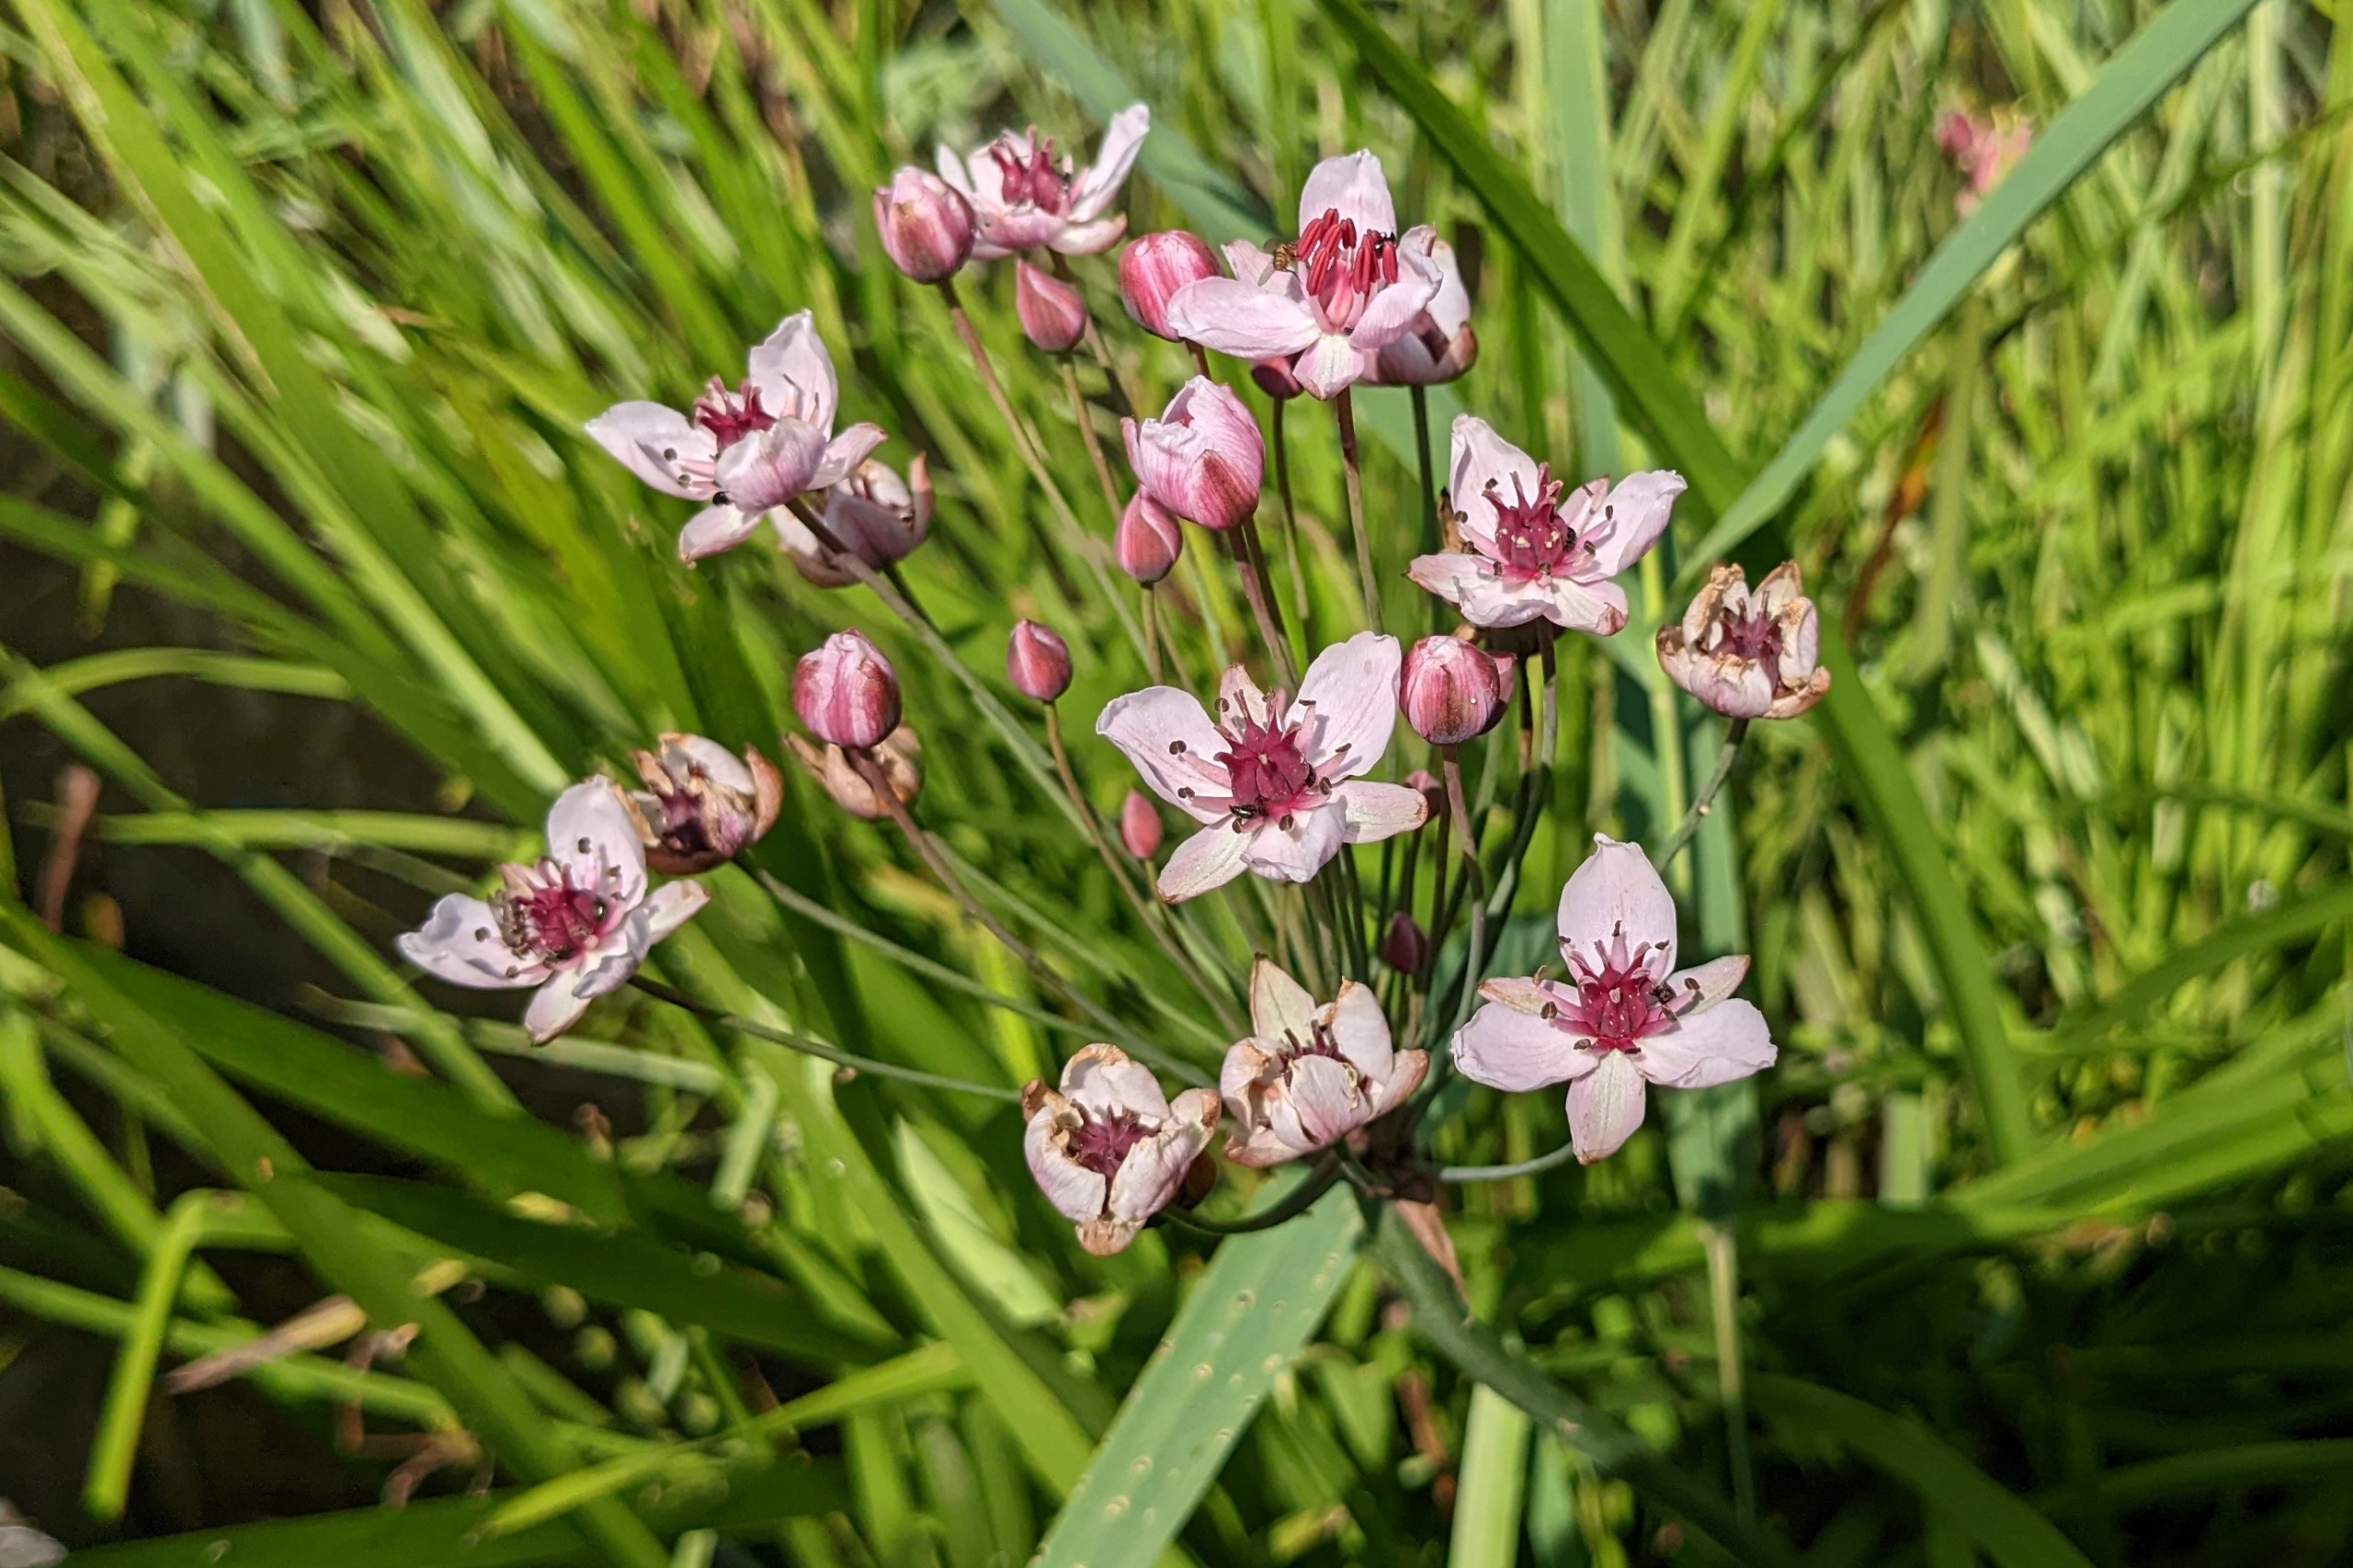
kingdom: Plantae
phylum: Tracheophyta
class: Liliopsida
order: Alismatales
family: Butomaceae
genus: Butomus
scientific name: Butomus umbellatus
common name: Brudelys
